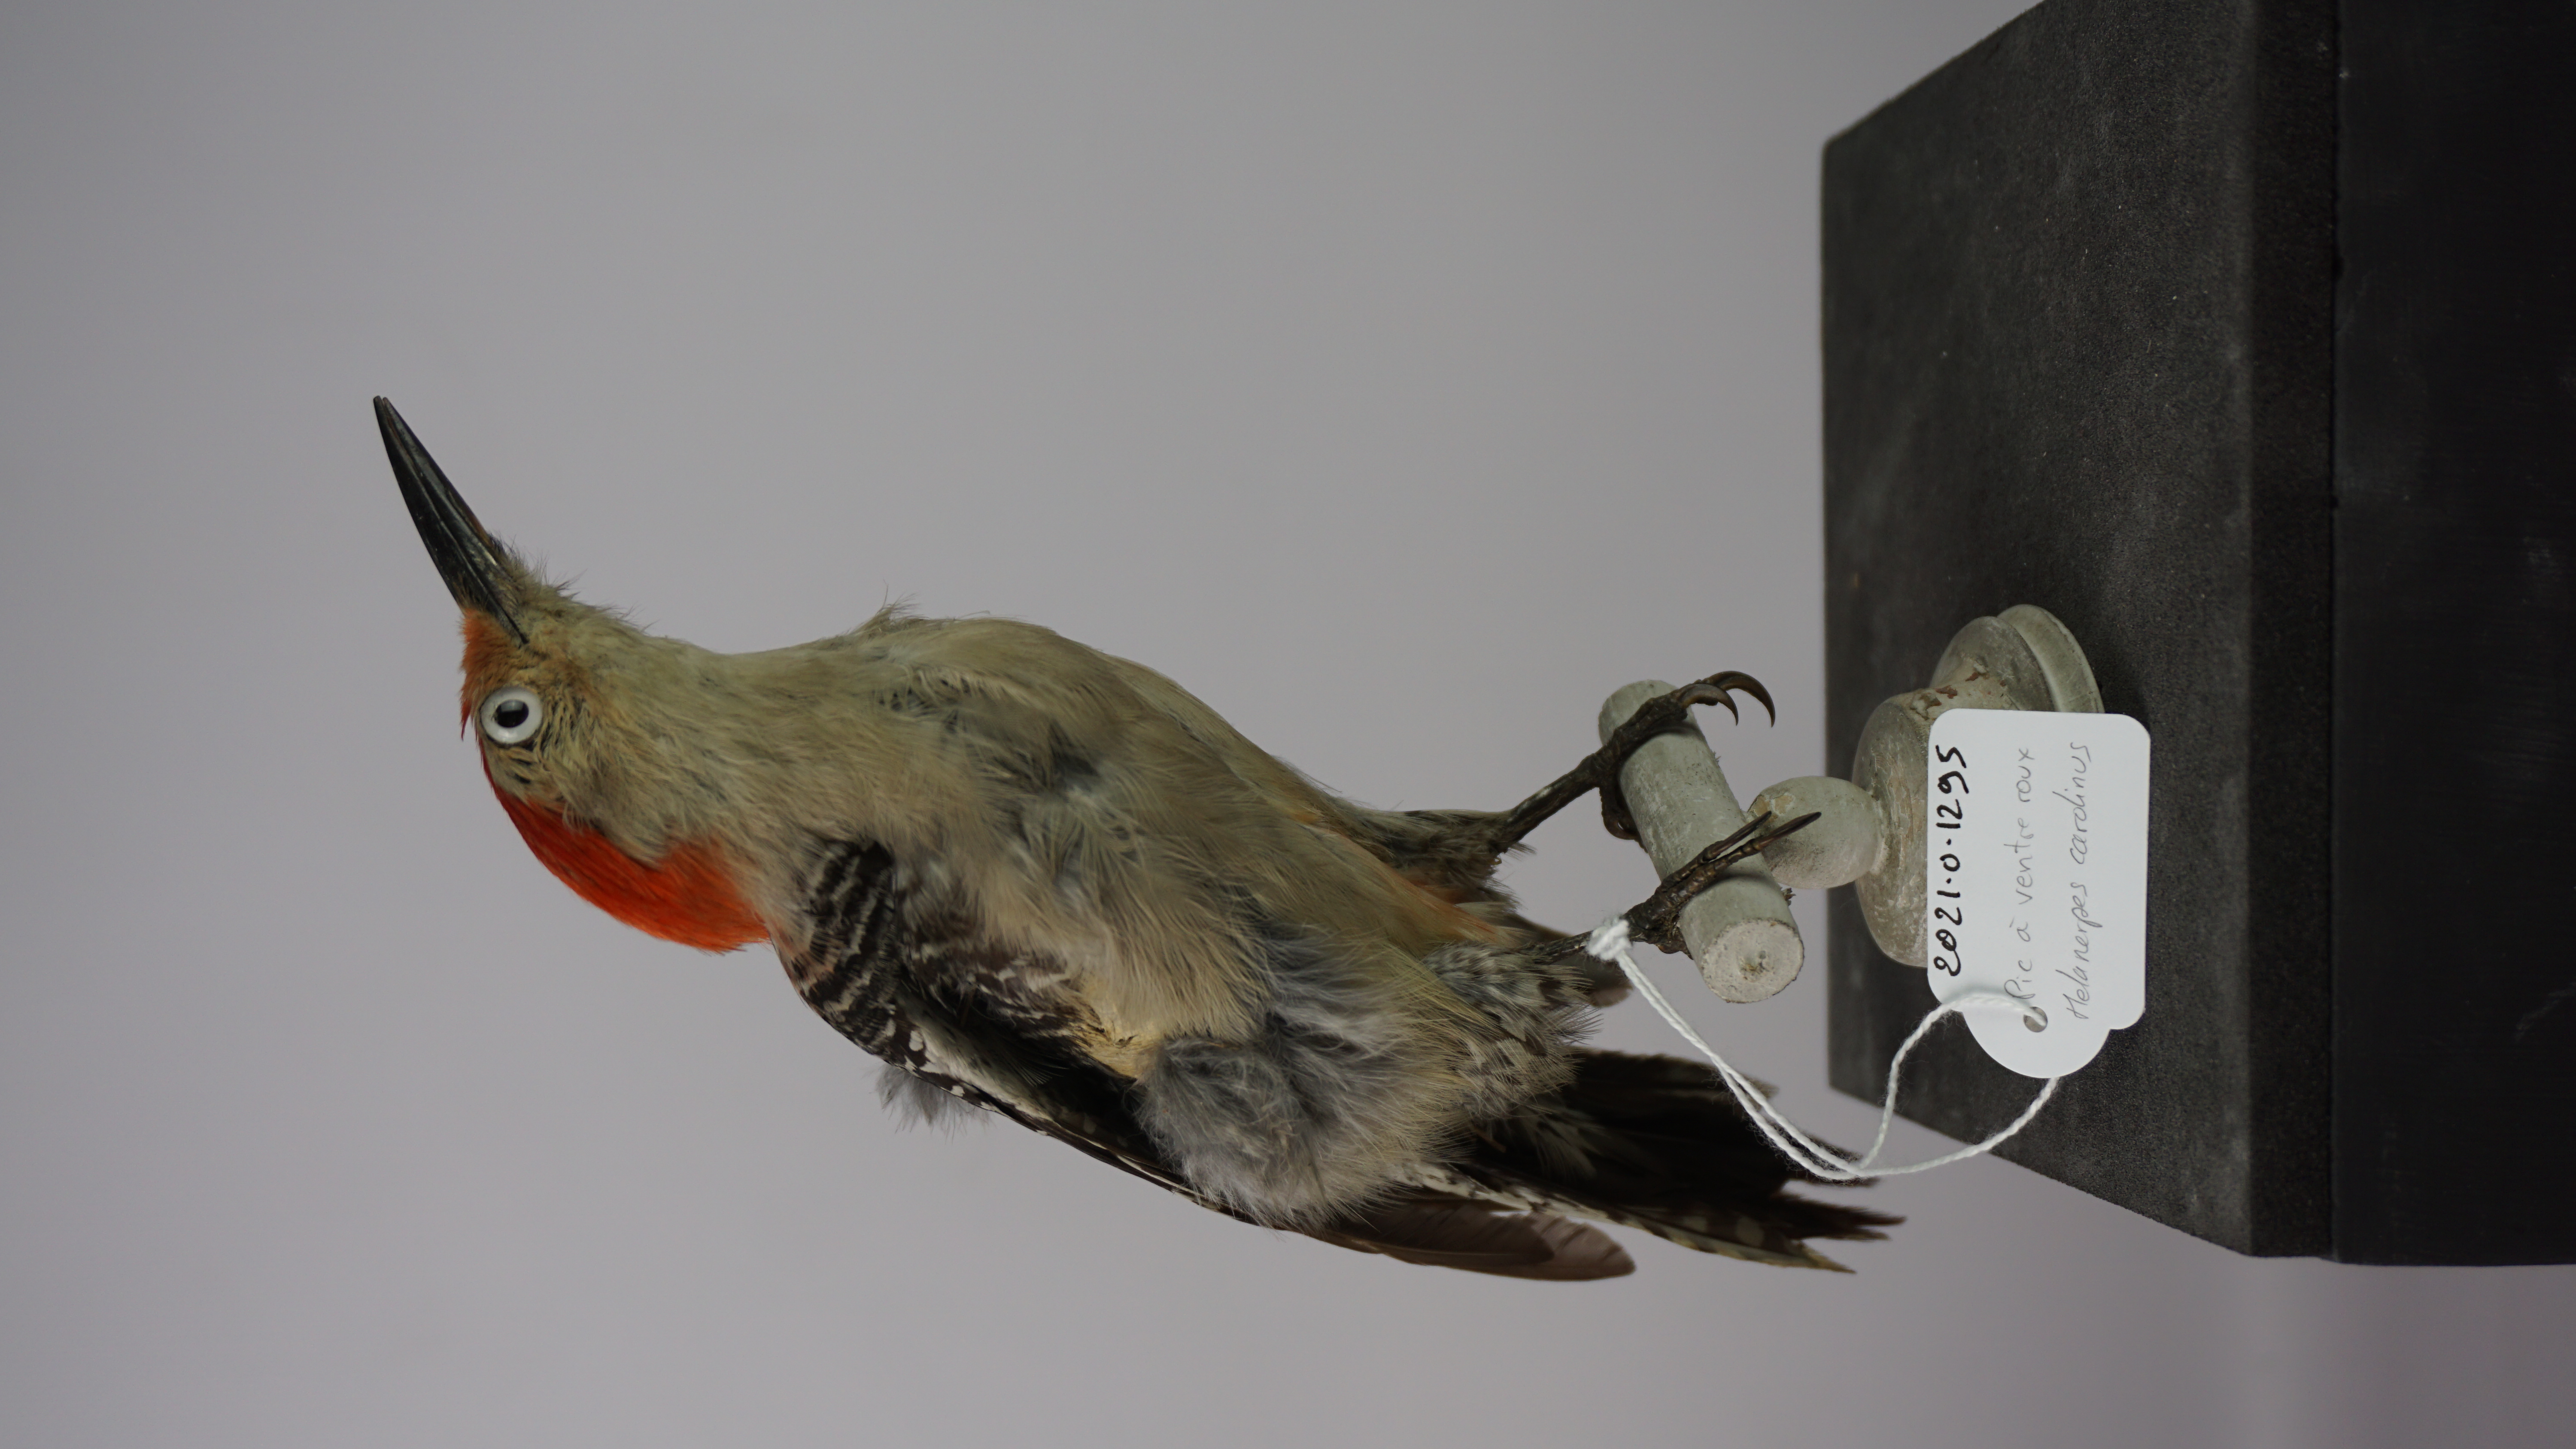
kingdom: Animalia
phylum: Chordata
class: Aves
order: Piciformes
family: Picidae
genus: Melanerpes
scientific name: Melanerpes carolinus
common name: Red-bellied woodpecker
